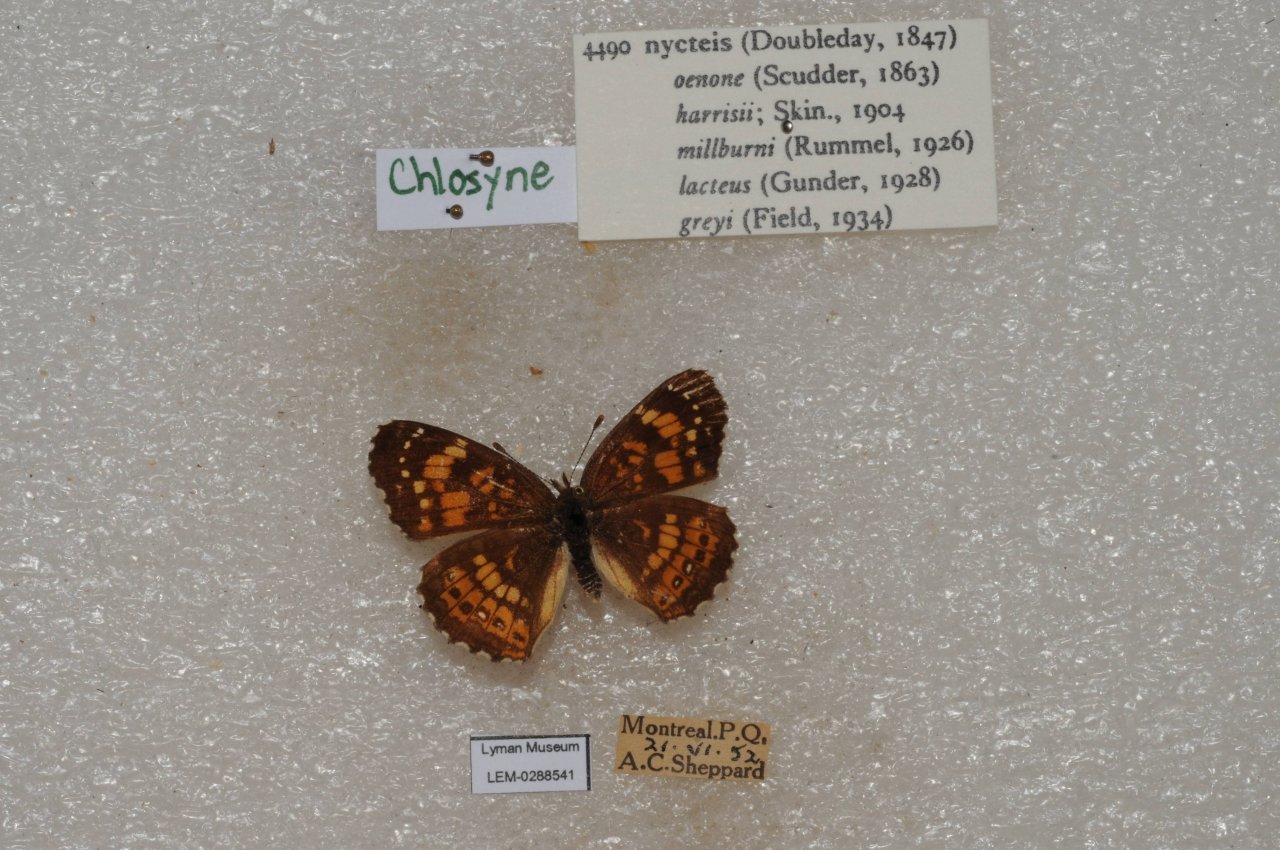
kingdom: Animalia
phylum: Arthropoda
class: Insecta
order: Lepidoptera
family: Nymphalidae
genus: Chlosyne
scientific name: Chlosyne nycteis
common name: Silvery Checkerspot
